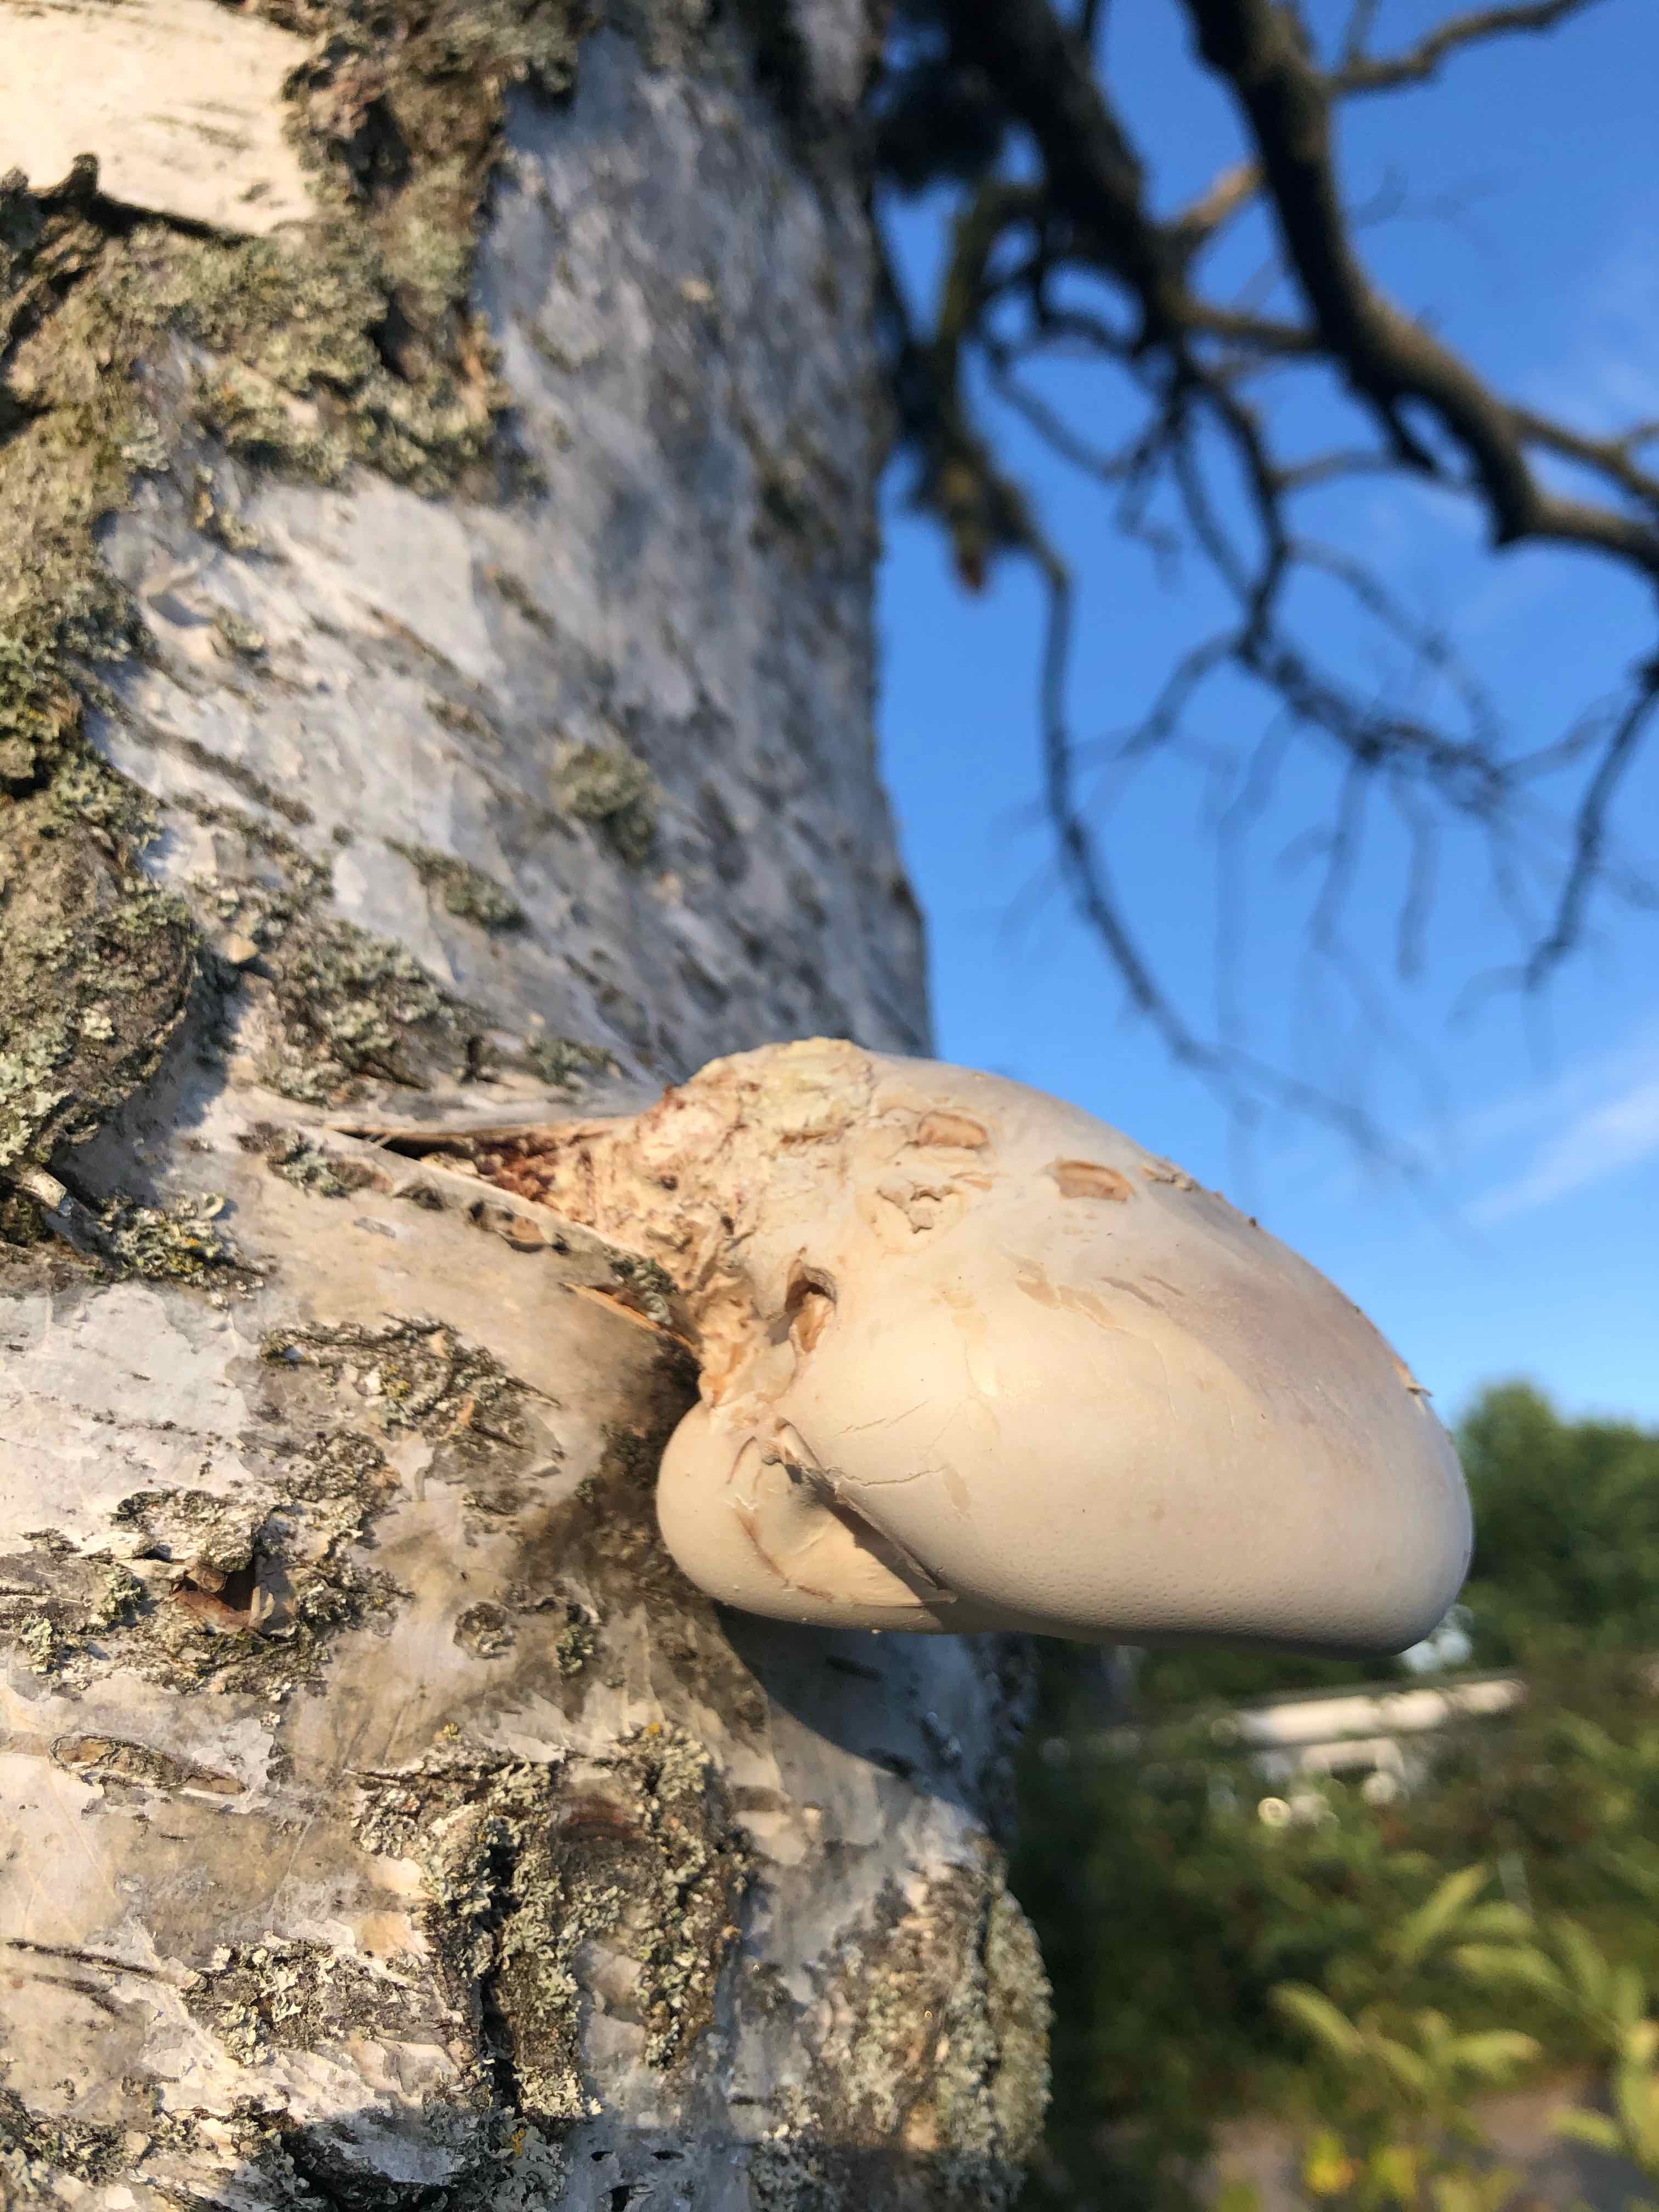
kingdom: Fungi
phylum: Basidiomycota
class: Agaricomycetes
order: Polyporales
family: Fomitopsidaceae
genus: Fomitopsis
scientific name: Fomitopsis betulina
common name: birkeporesvamp
